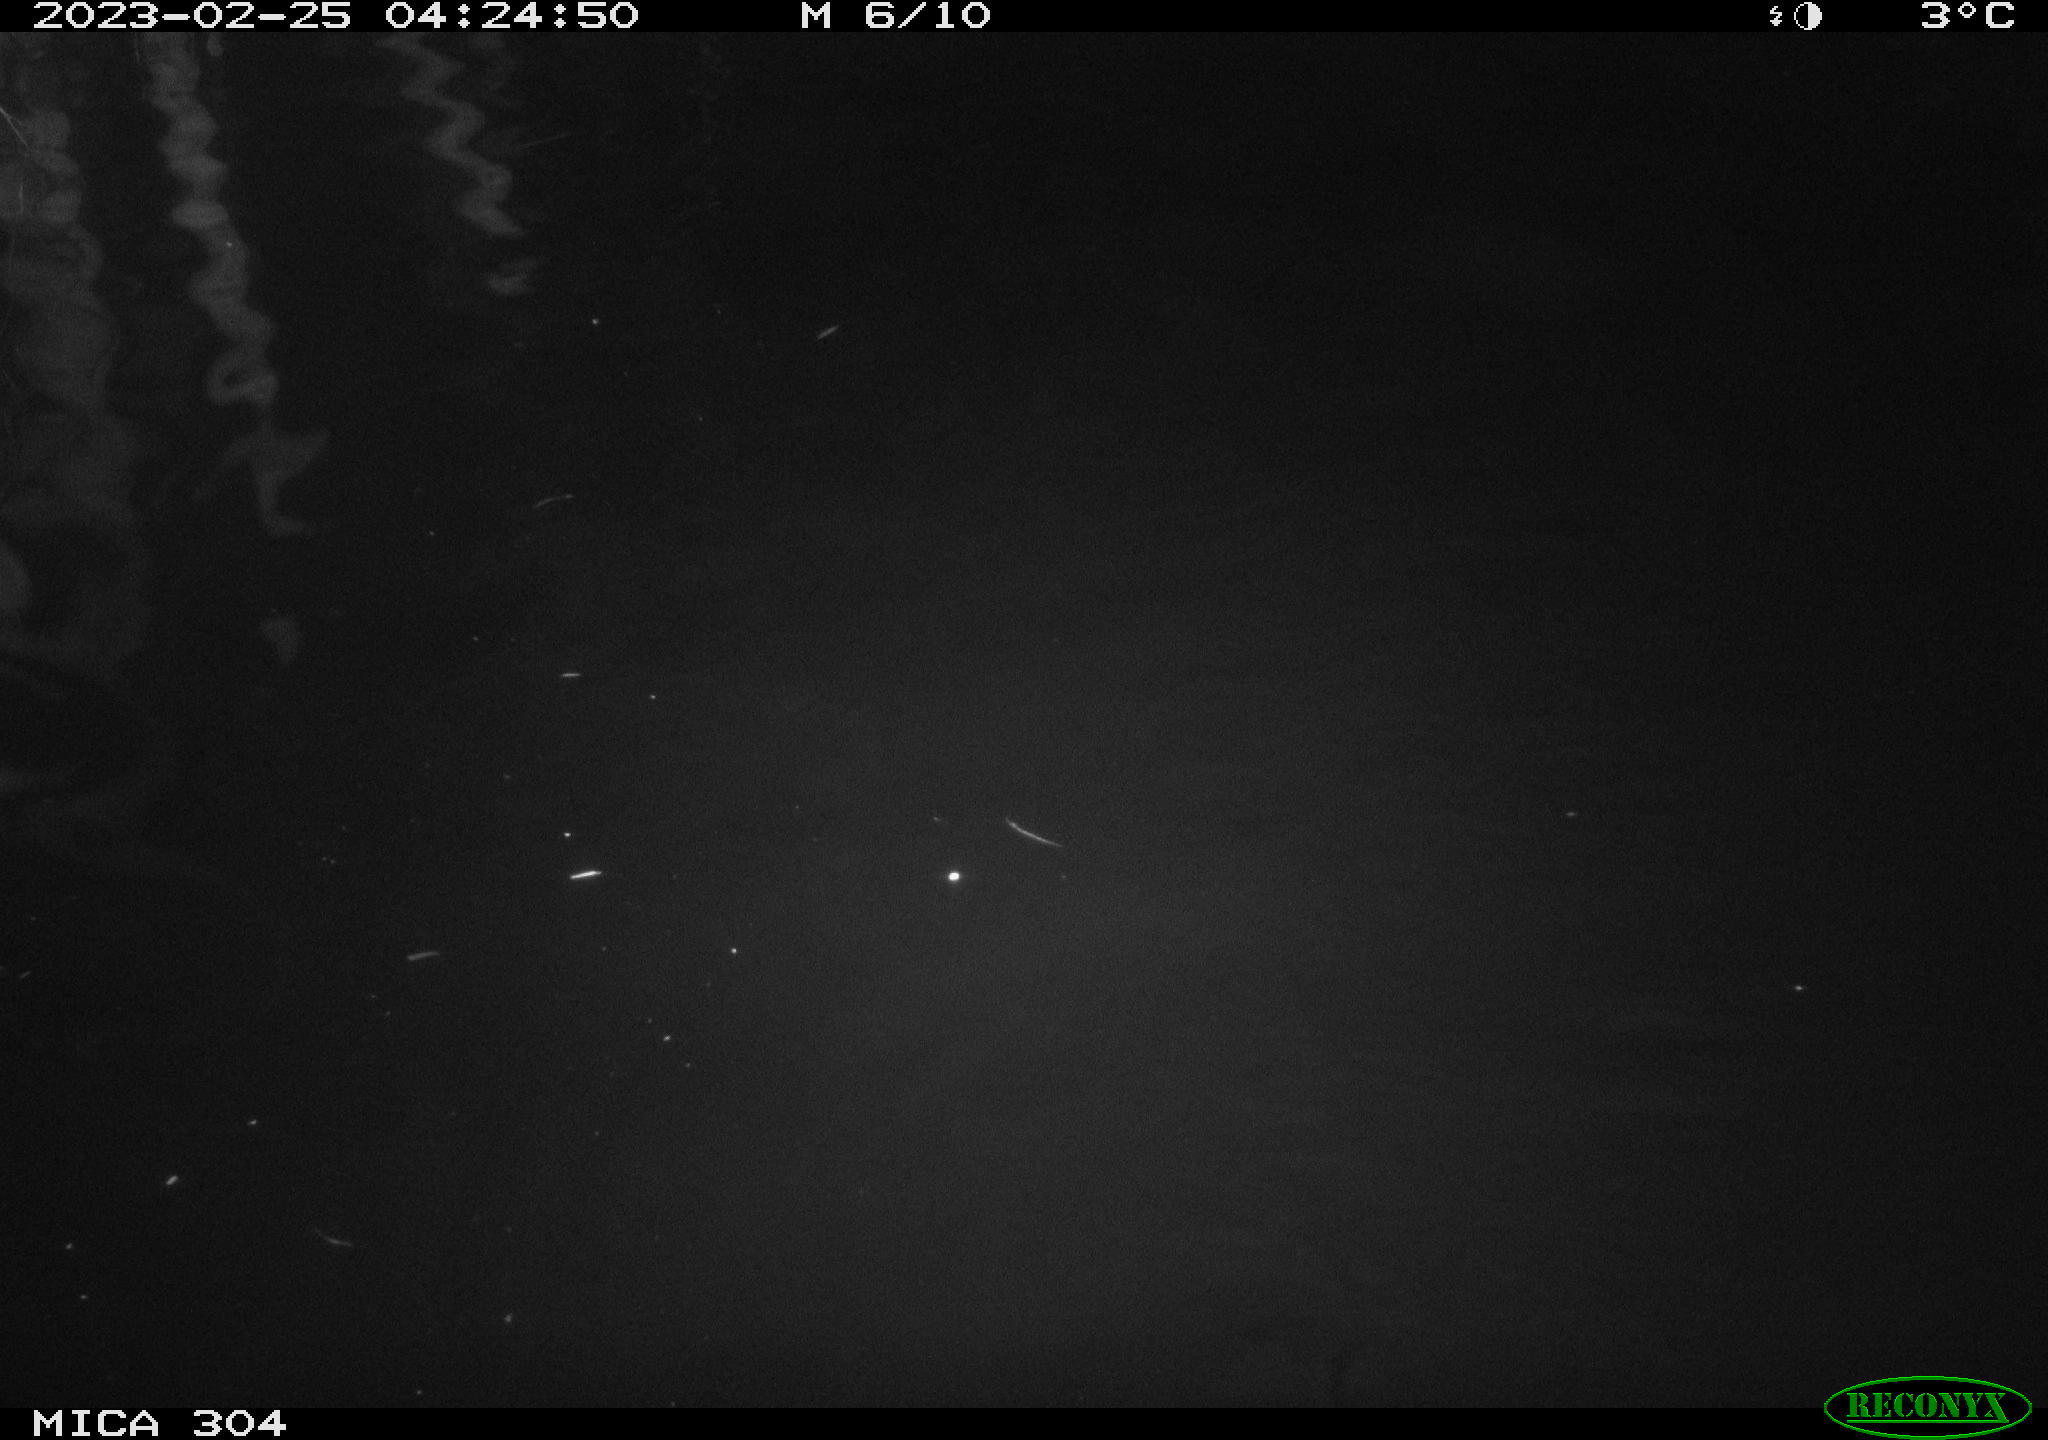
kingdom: Animalia
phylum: Chordata
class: Mammalia
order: Rodentia
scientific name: Rodentia
